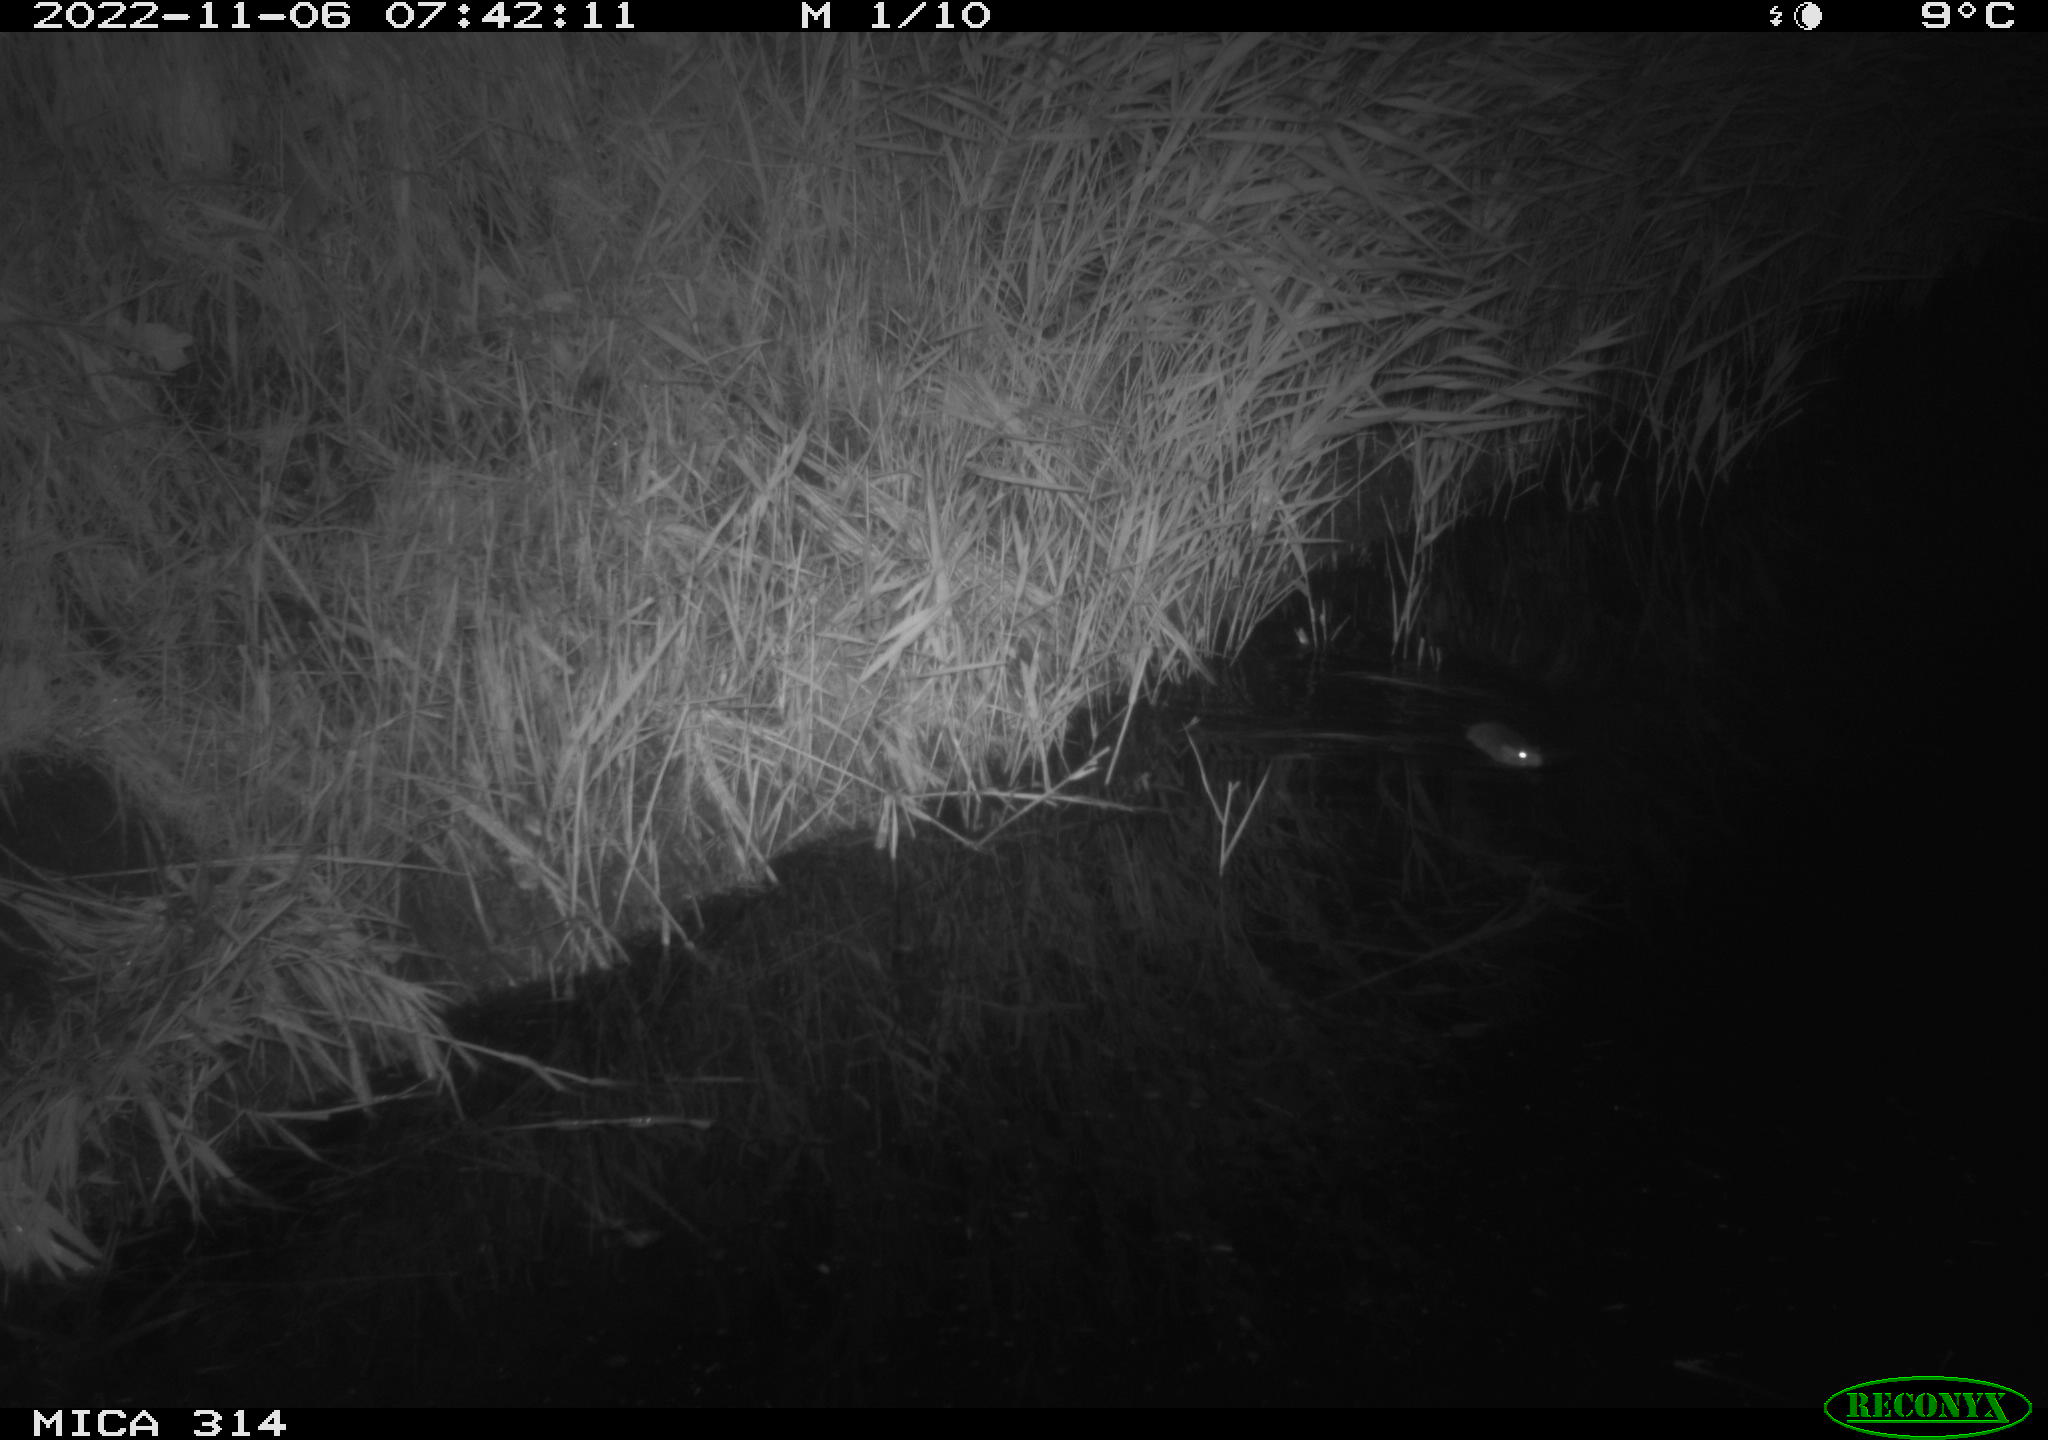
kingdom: Animalia
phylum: Chordata
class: Mammalia
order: Rodentia
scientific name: Rodentia
